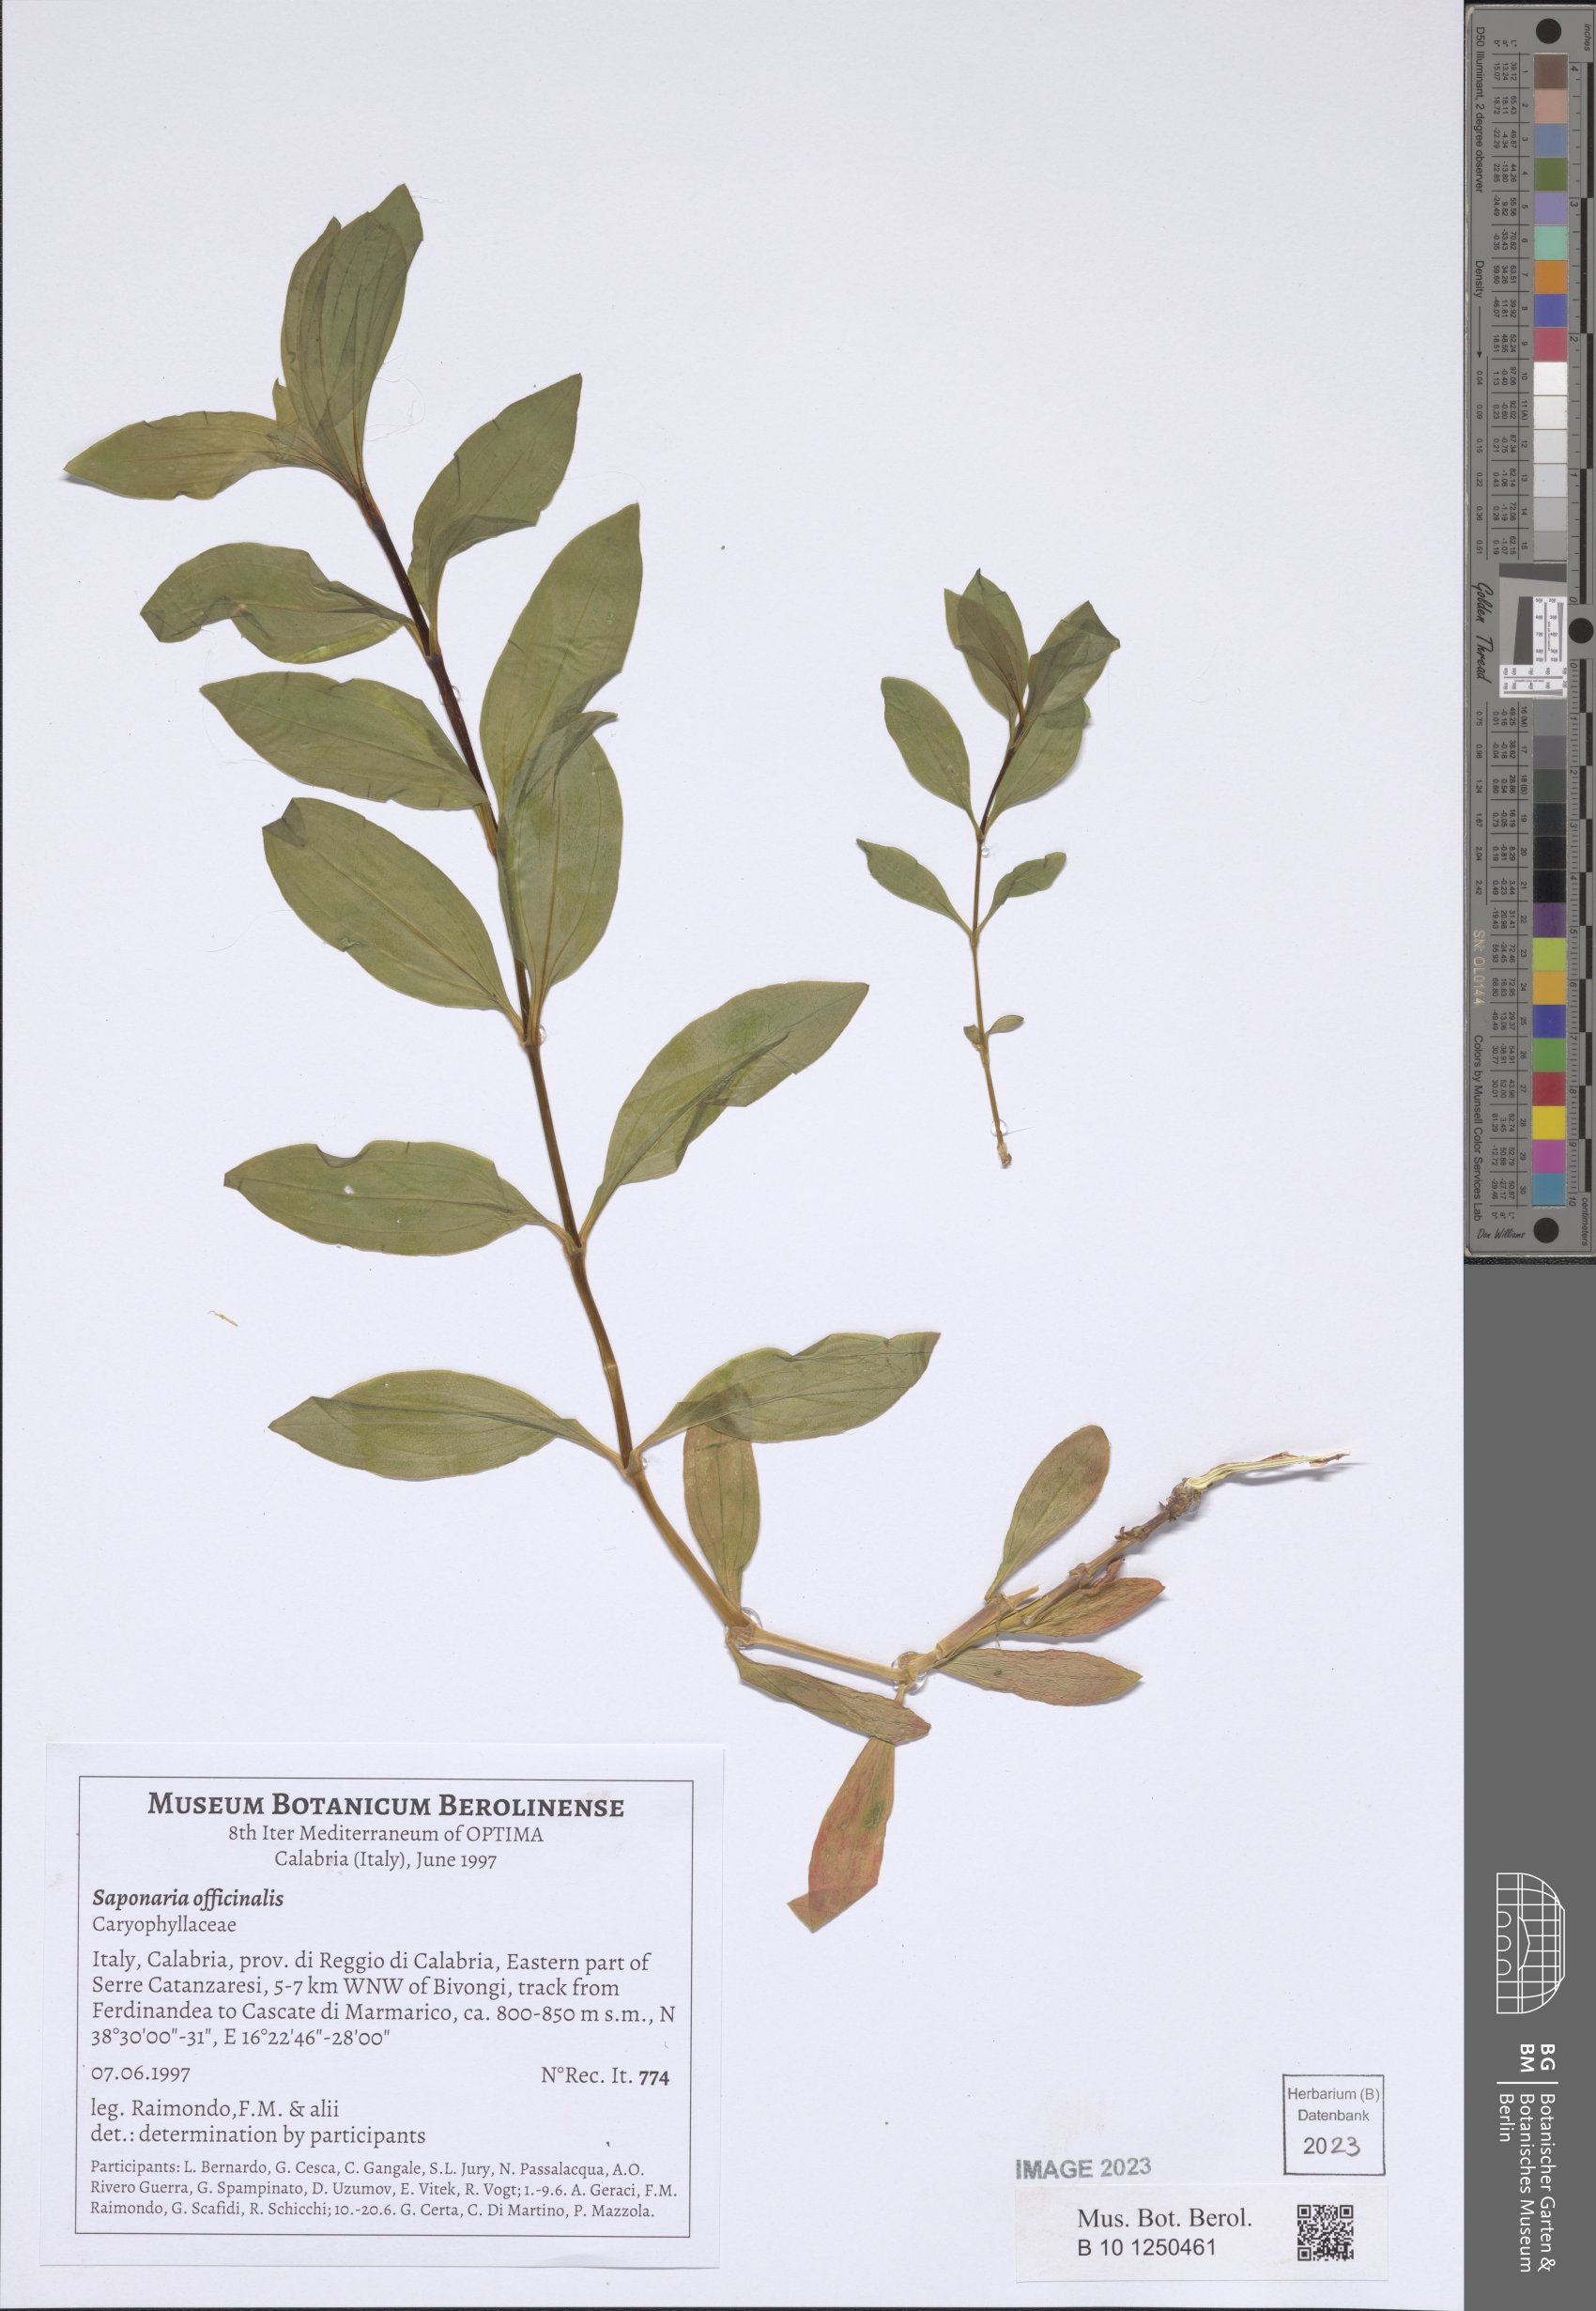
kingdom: Plantae
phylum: Tracheophyta
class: Magnoliopsida
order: Caryophyllales
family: Caryophyllaceae
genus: Saponaria
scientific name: Saponaria officinalis
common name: Soapwort
